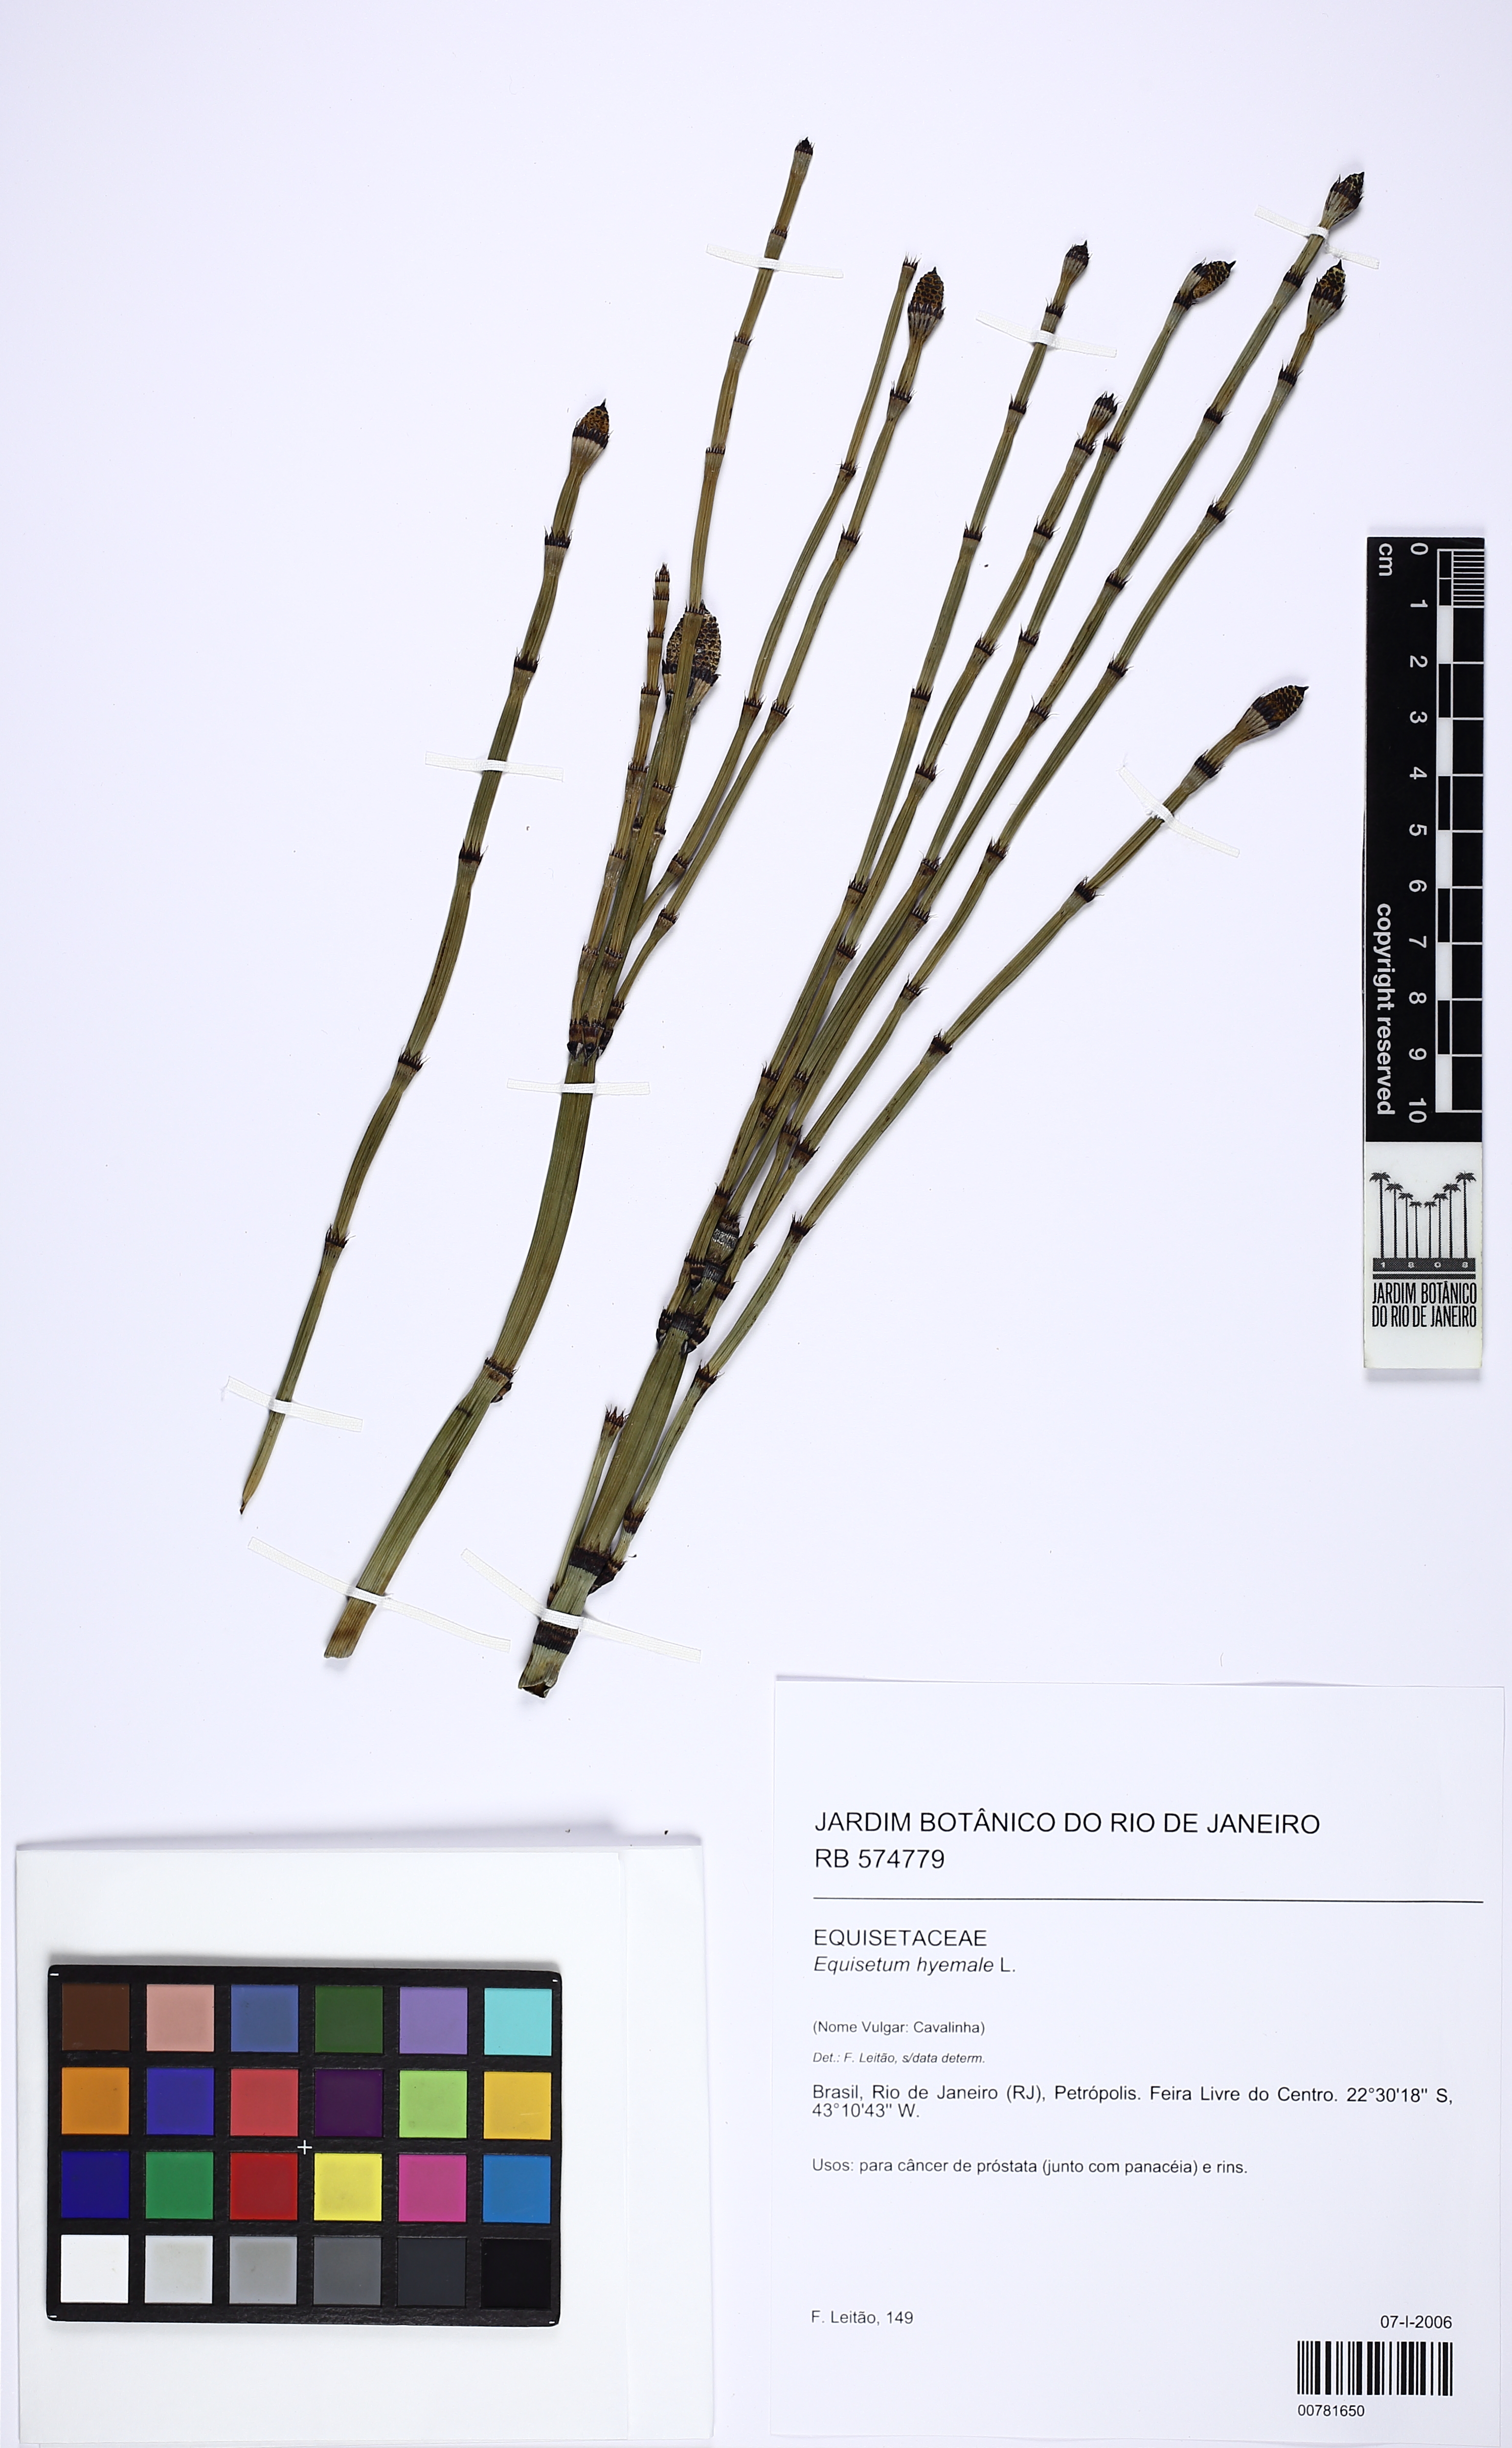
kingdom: Plantae
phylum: Tracheophyta
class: Polypodiopsida
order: Equisetales
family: Equisetaceae
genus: Equisetum
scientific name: Equisetum hyemale
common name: Rough horsetail
